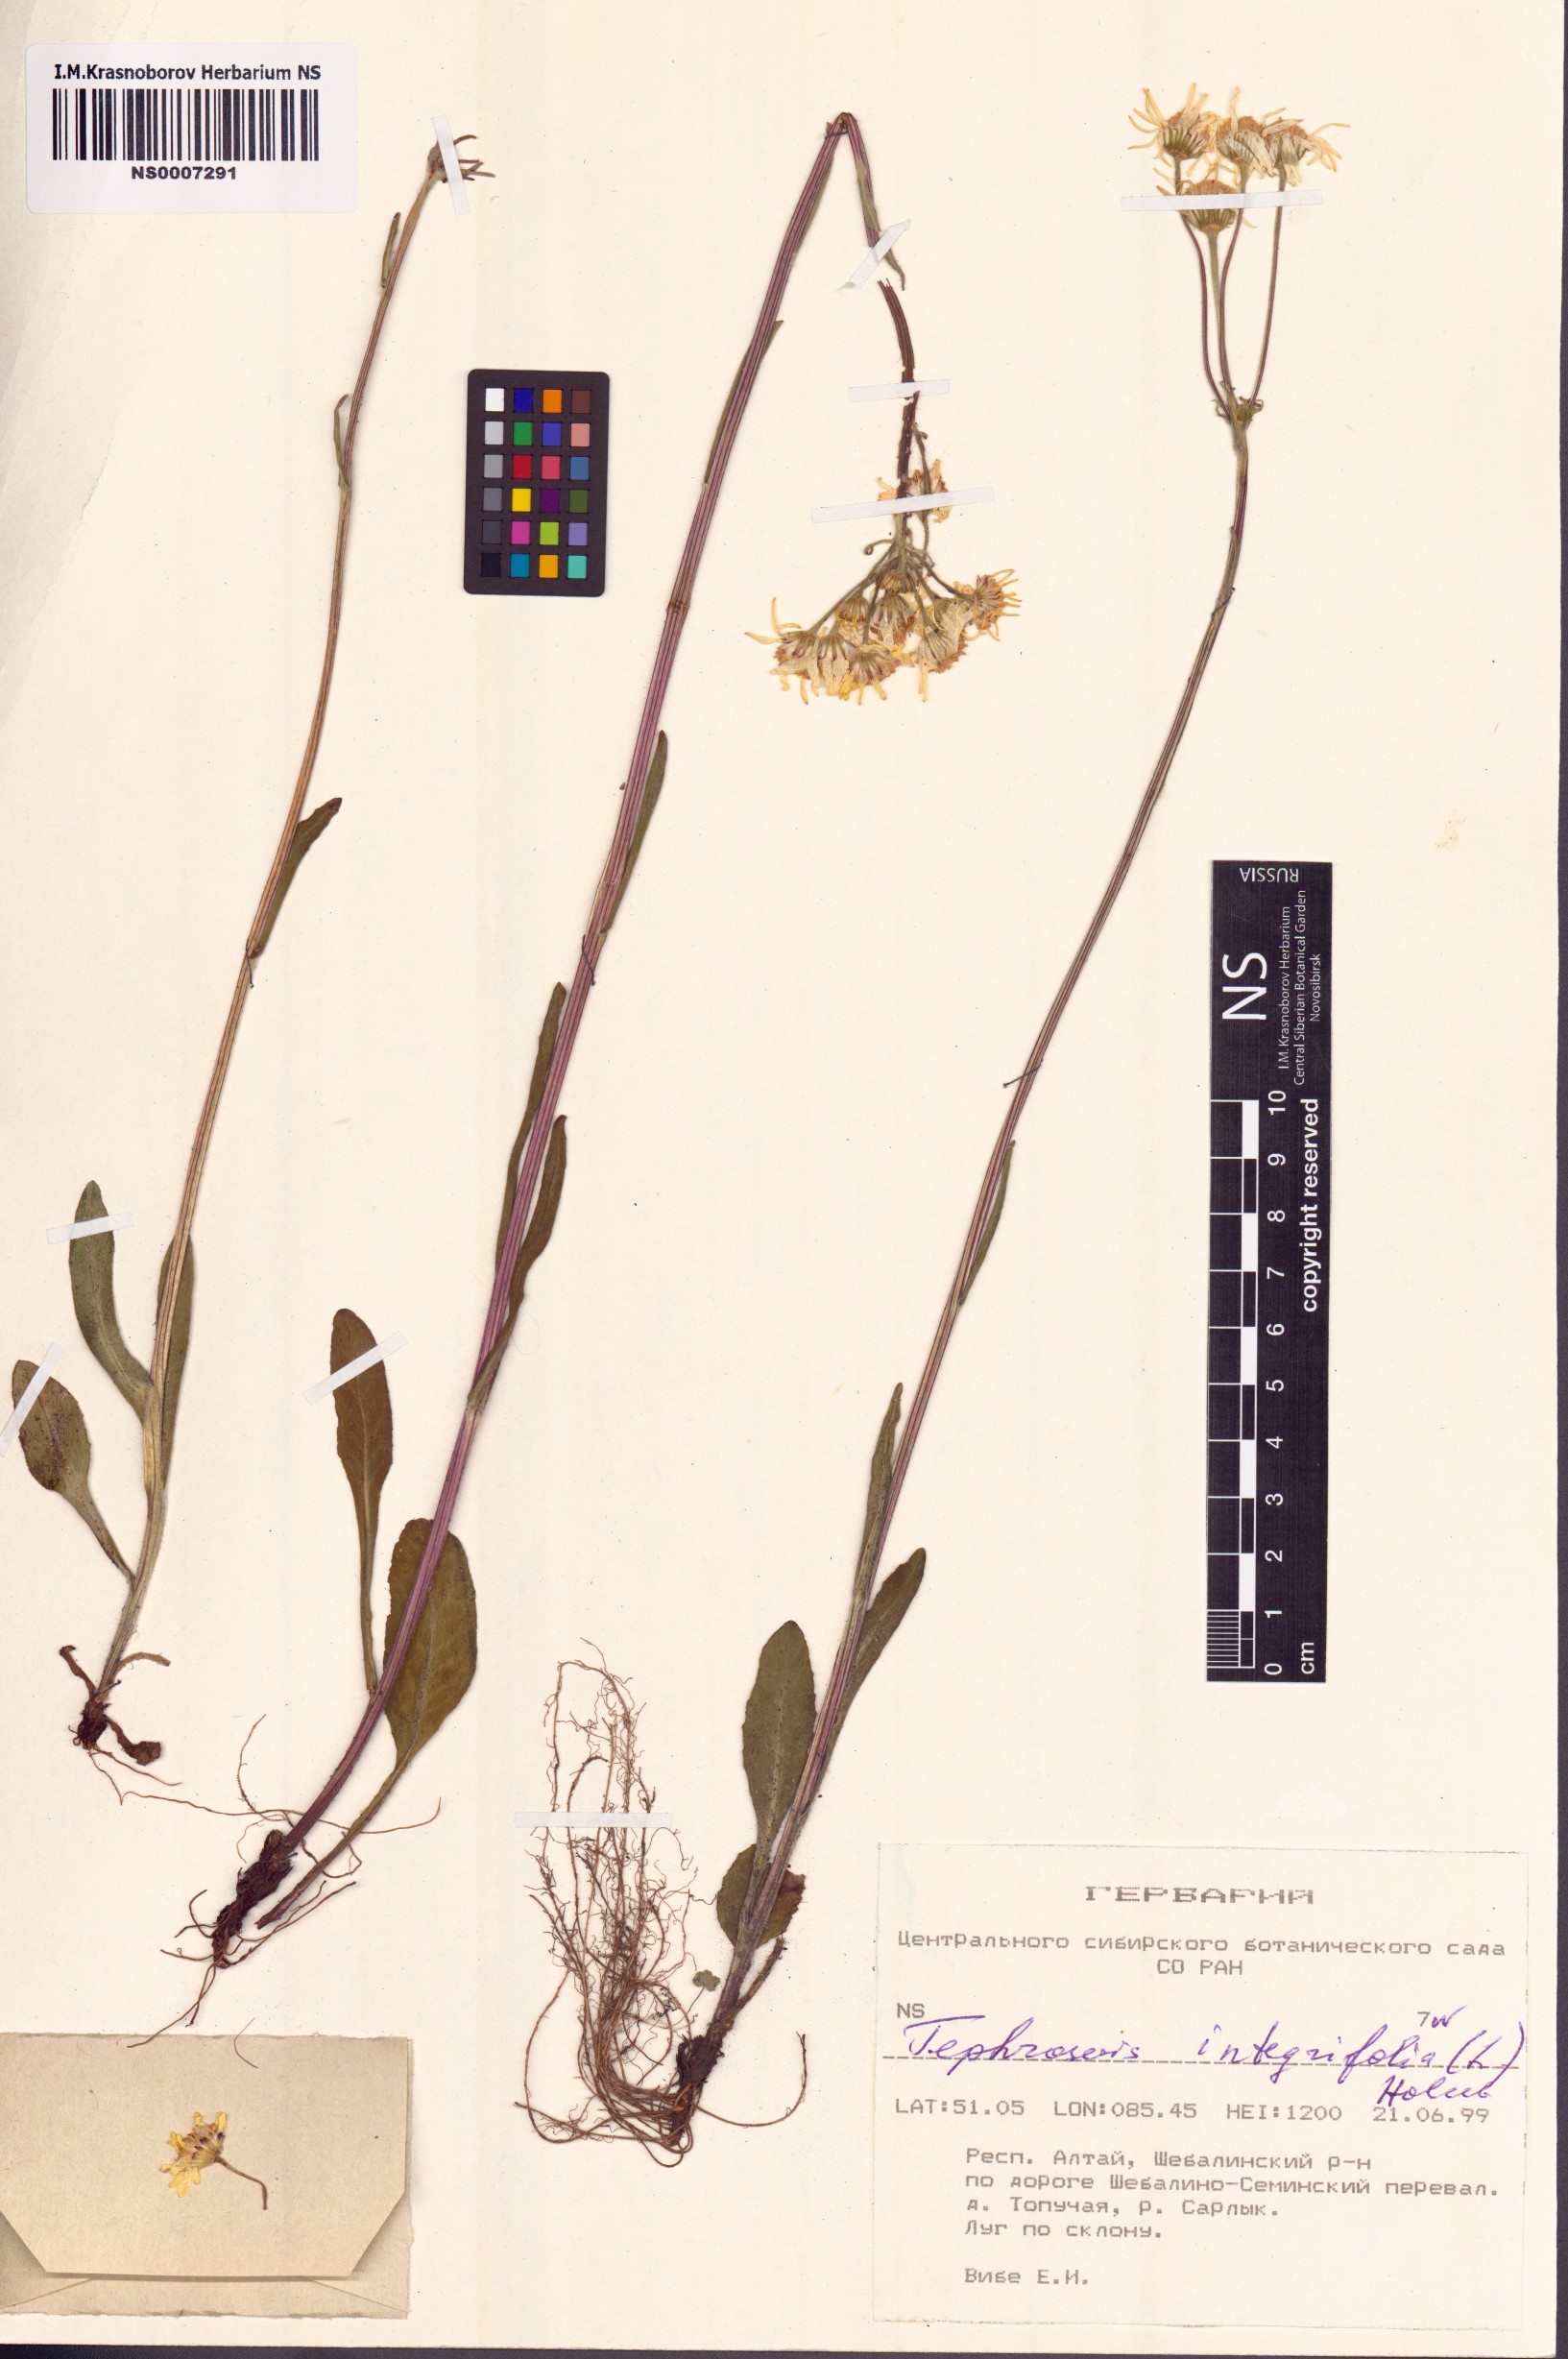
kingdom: Plantae
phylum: Tracheophyta
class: Magnoliopsida
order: Asterales
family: Asteraceae
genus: Tephroseris
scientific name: Tephroseris integrifolia
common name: Field fleawort
